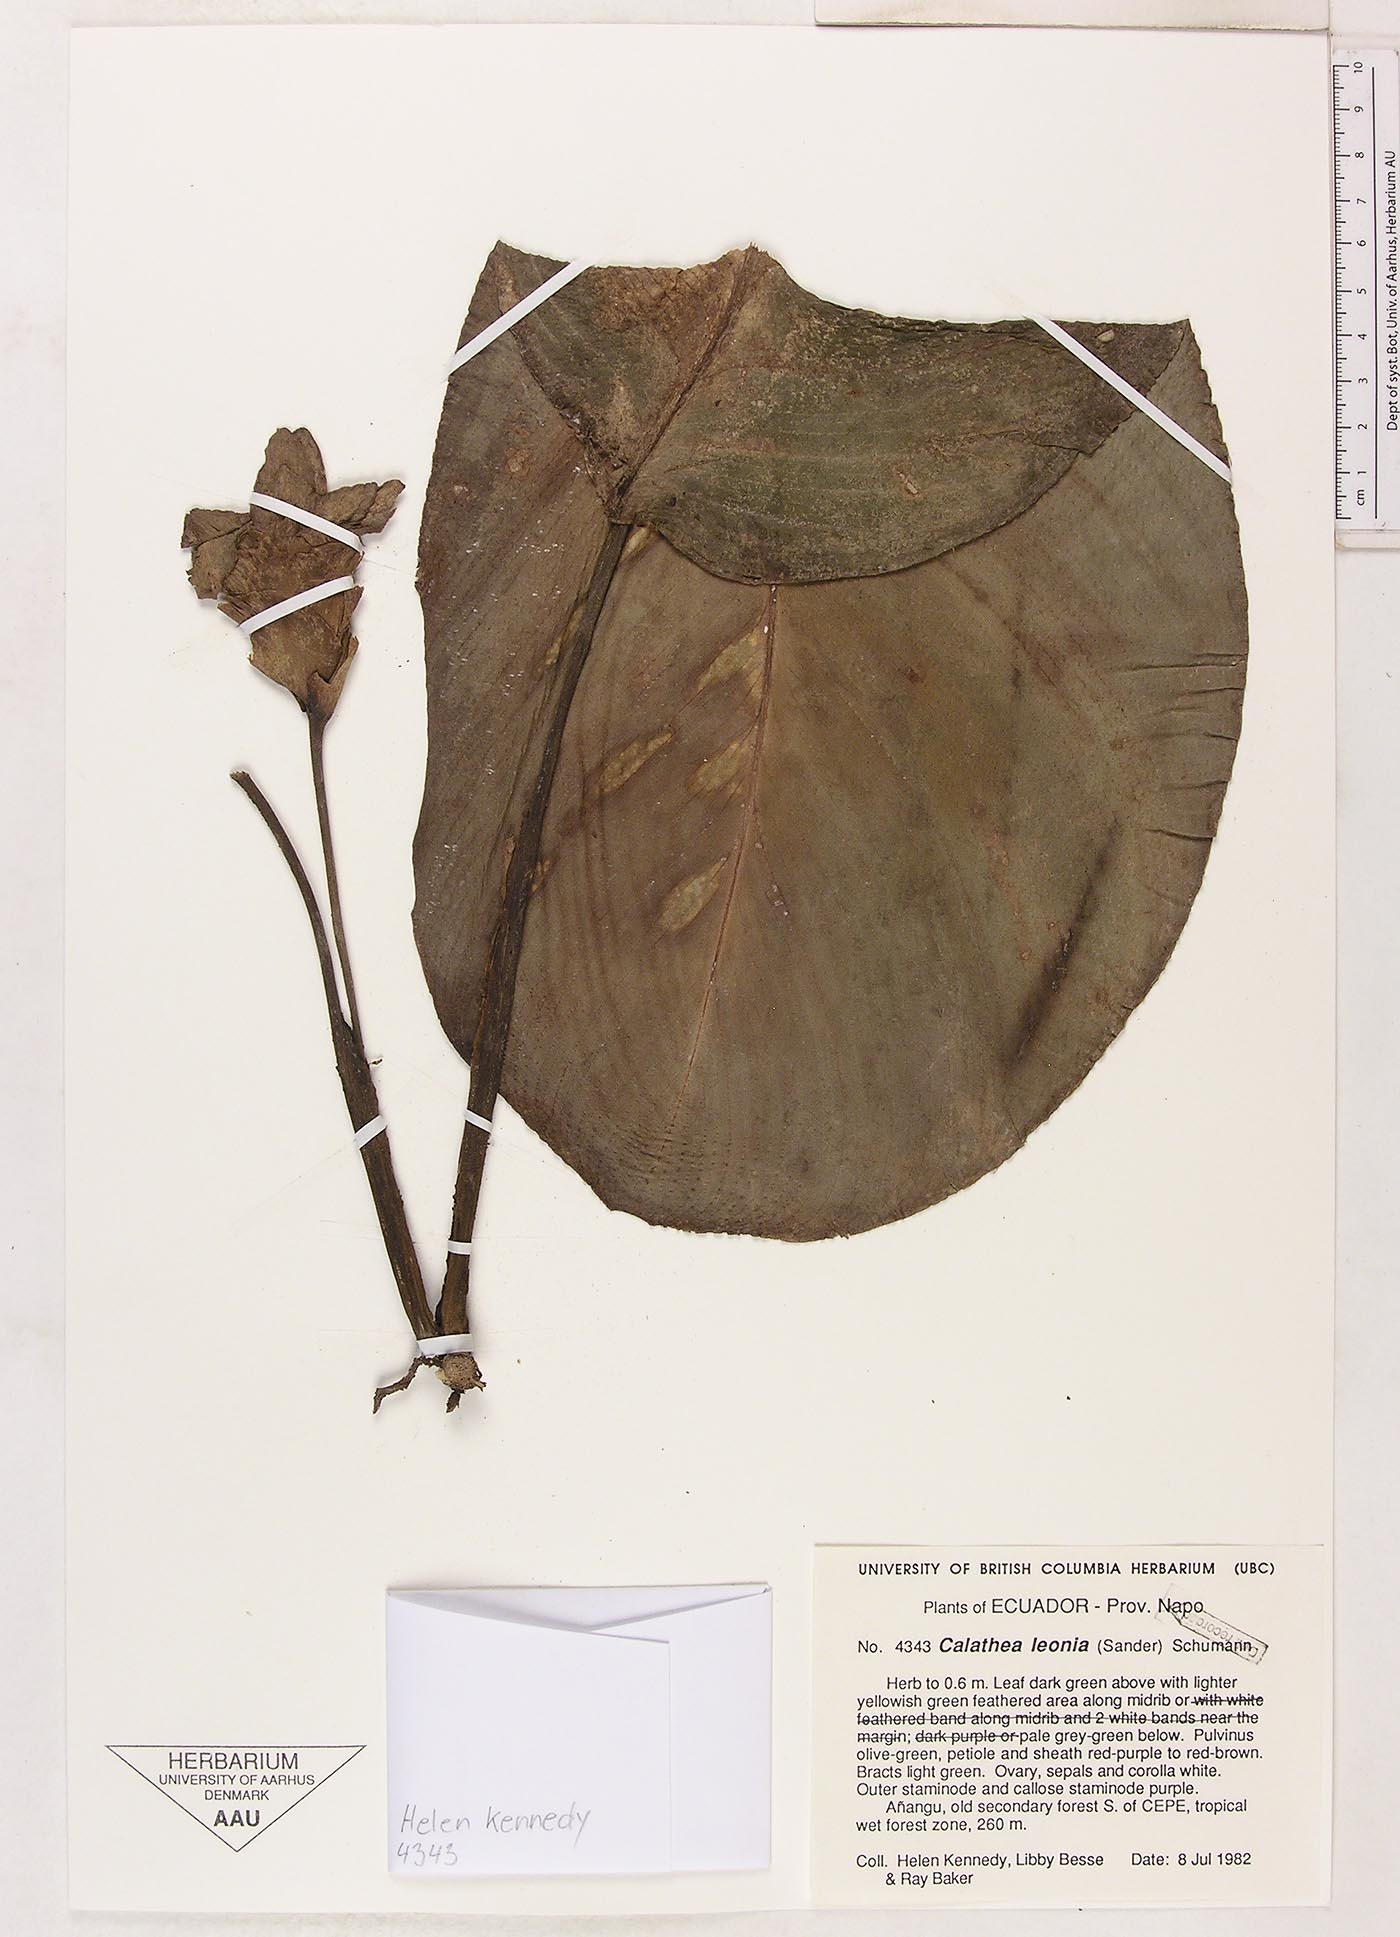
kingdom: Plantae
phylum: Tracheophyta
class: Liliopsida
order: Zingiberales
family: Marantaceae
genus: Goeppertia
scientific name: Goeppertia leonia
